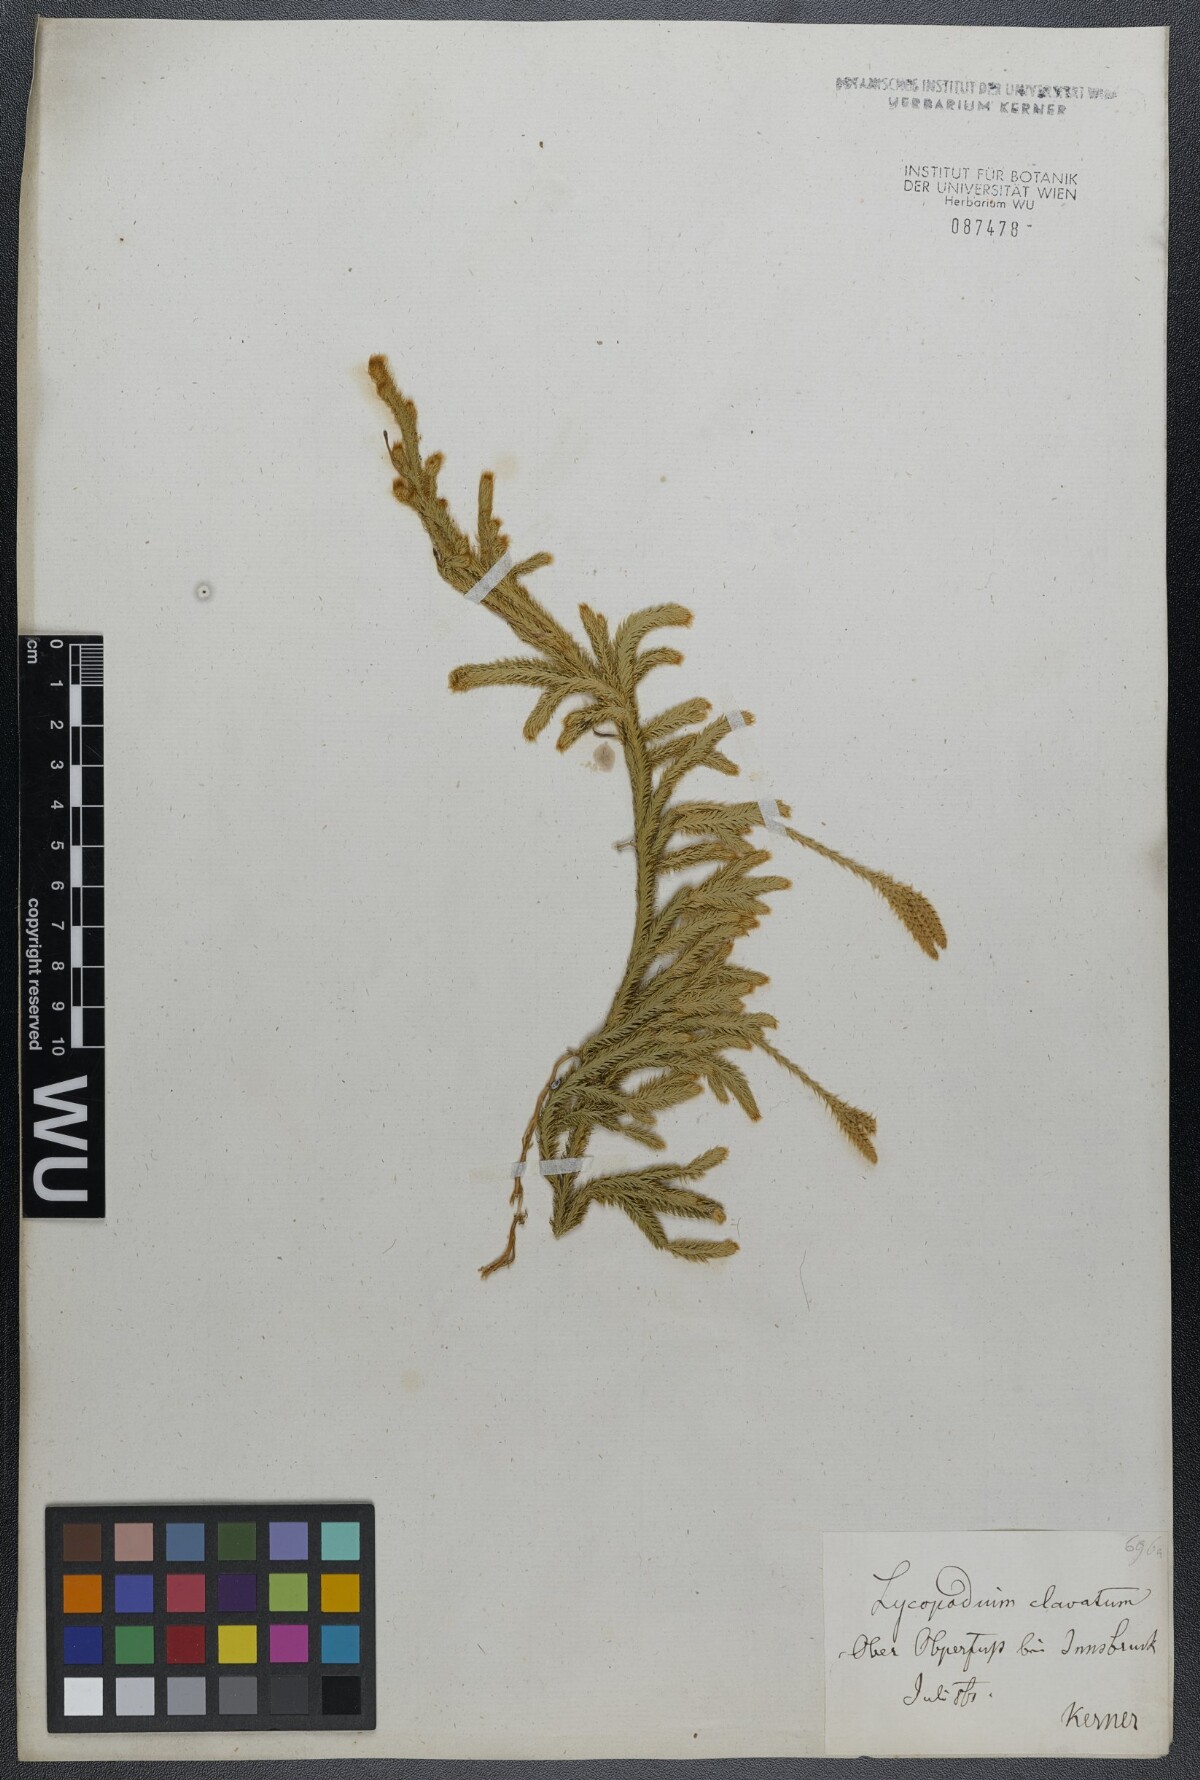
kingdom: Plantae
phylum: Tracheophyta
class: Lycopodiopsida
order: Lycopodiales
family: Lycopodiaceae
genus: Lycopodium
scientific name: Lycopodium clavatum
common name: Stag's-horn clubmoss
